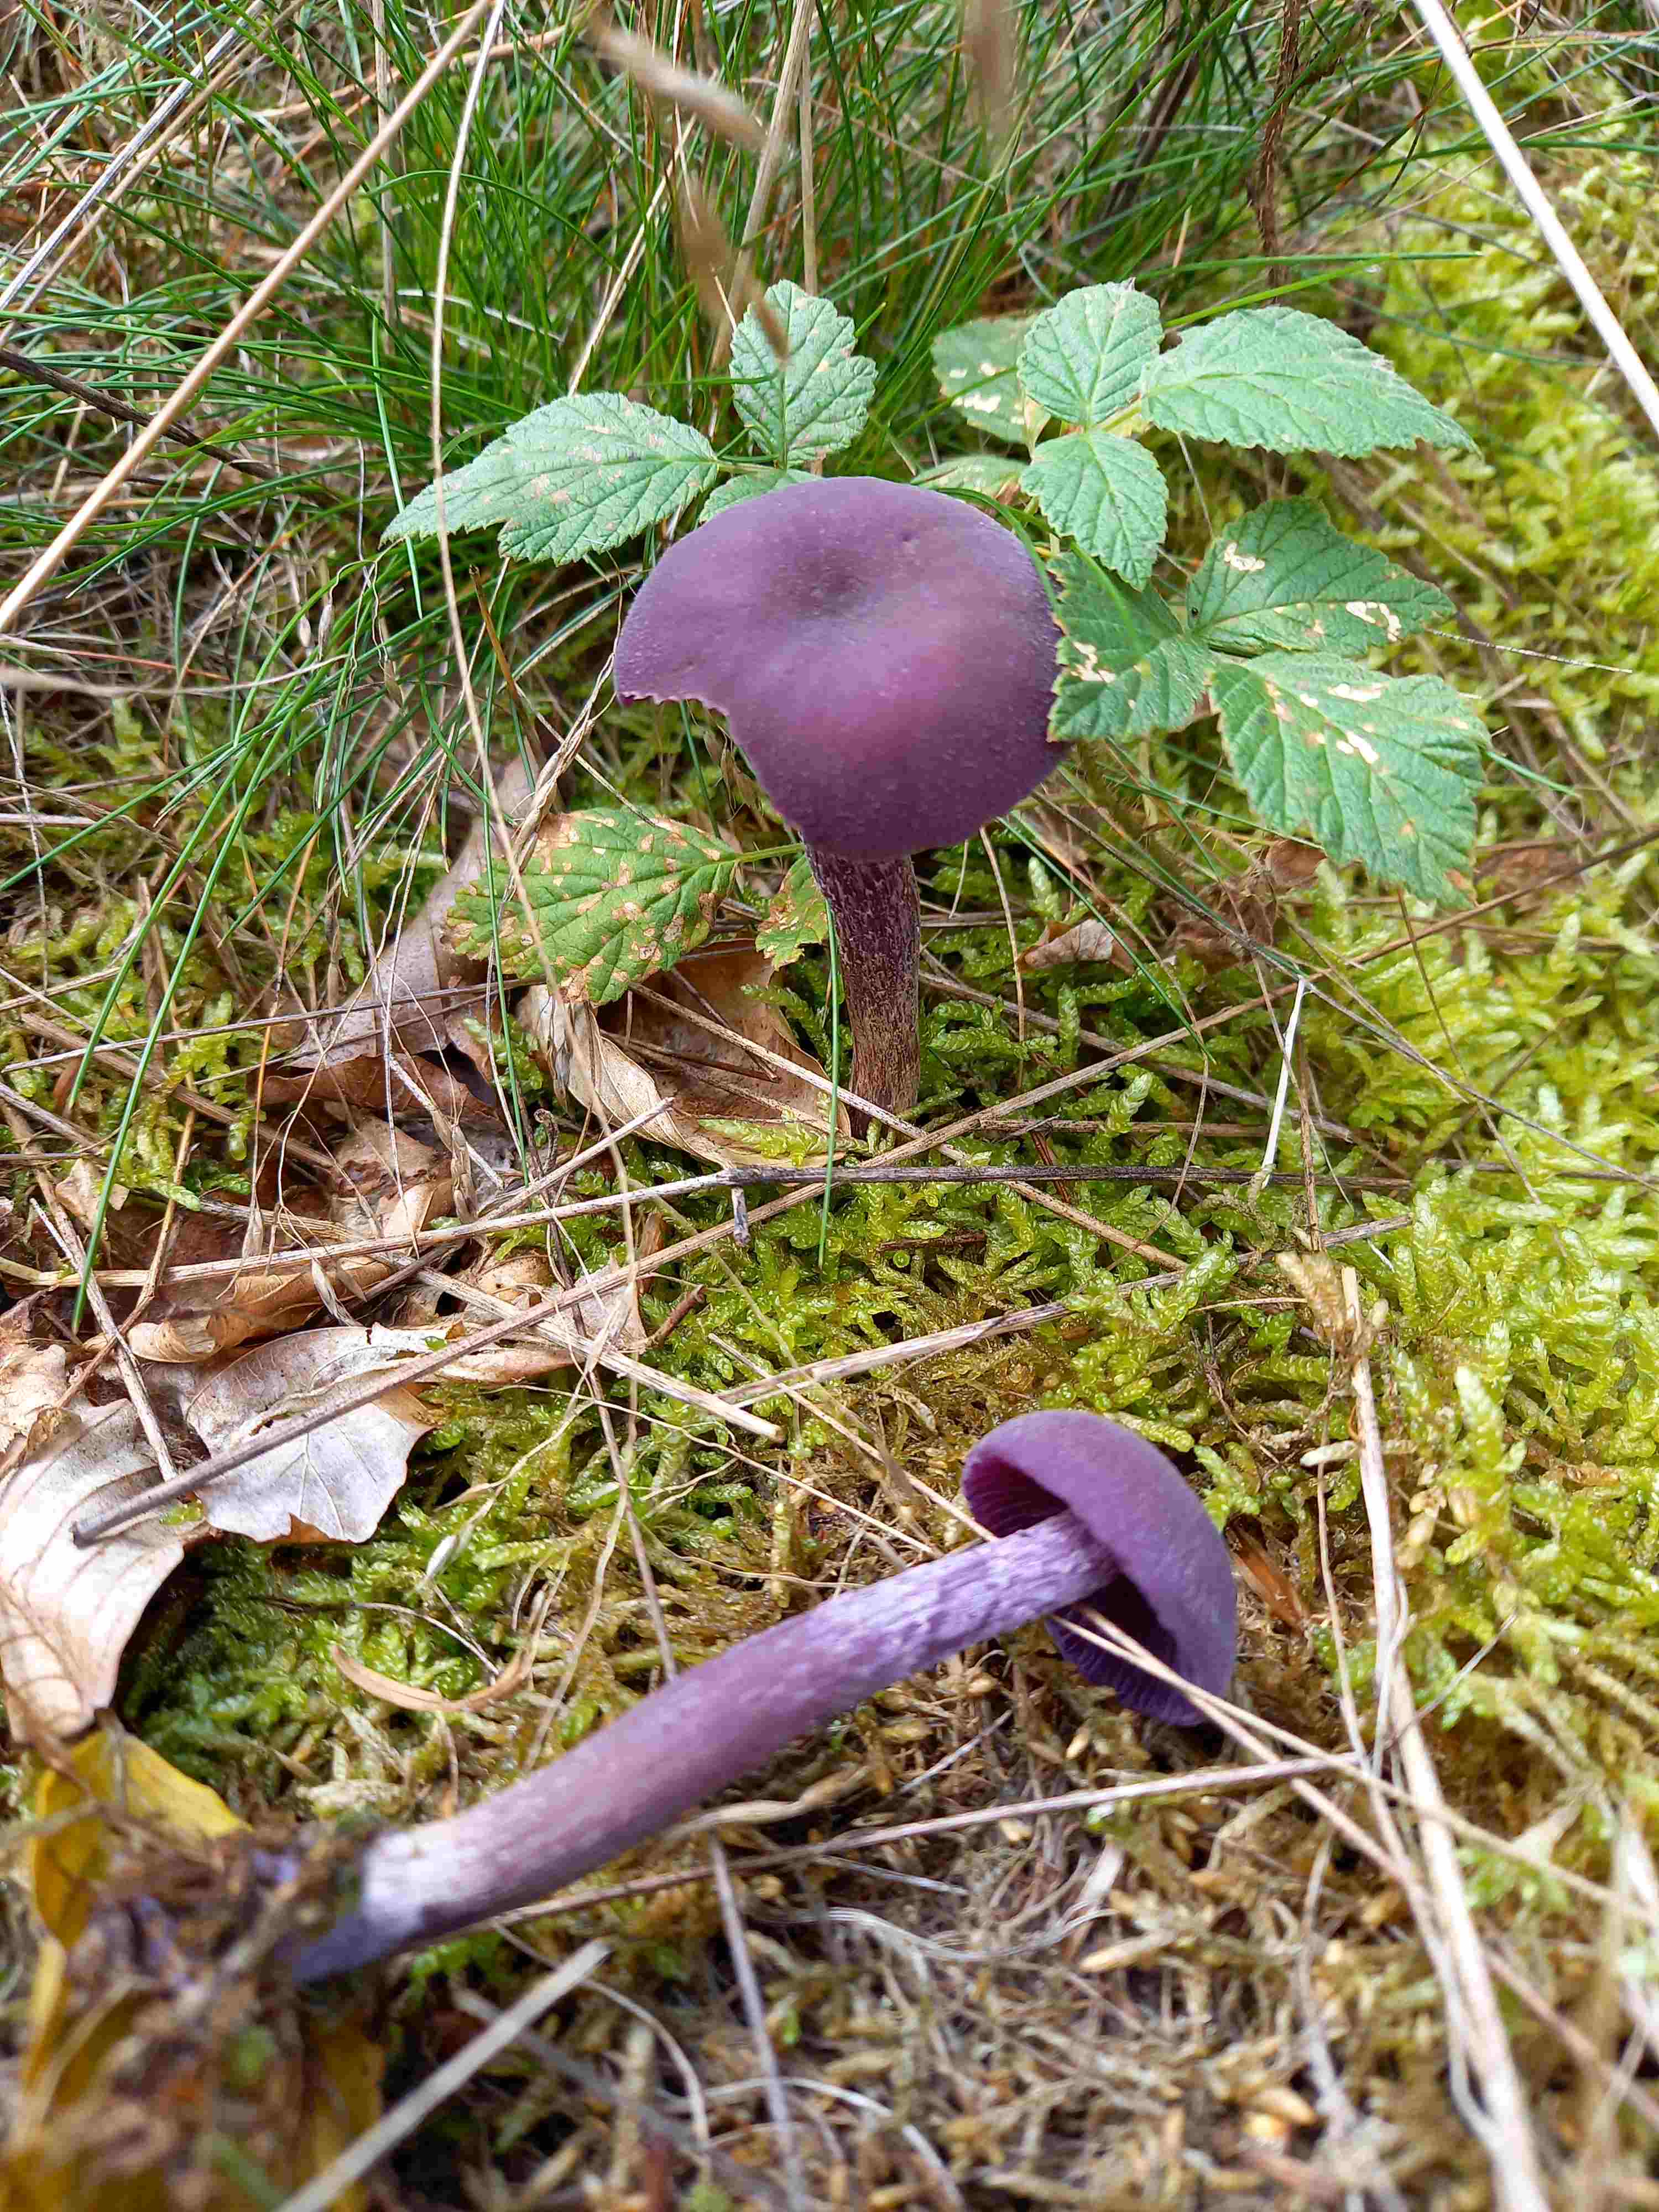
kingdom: Fungi
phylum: Basidiomycota
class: Agaricomycetes
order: Agaricales
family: Hydnangiaceae
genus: Laccaria
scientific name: Laccaria amethystina
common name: violet ametysthat
